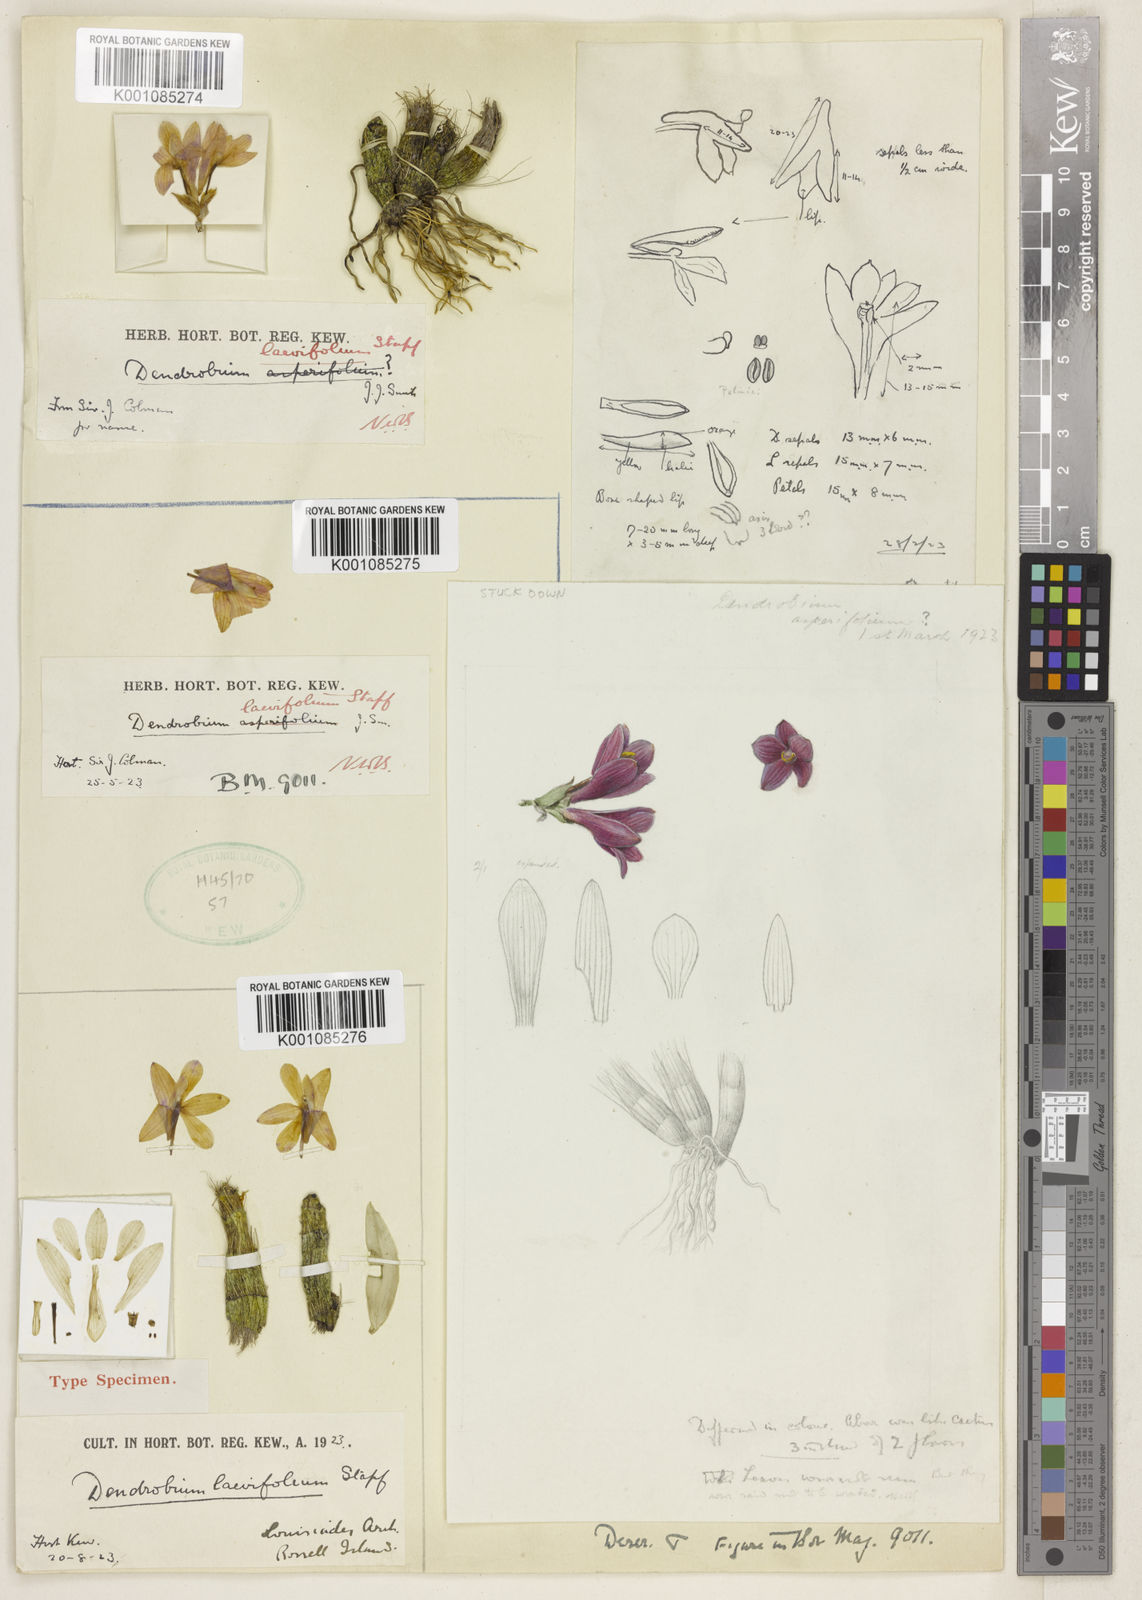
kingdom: Plantae
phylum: Tracheophyta
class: Liliopsida
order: Asparagales
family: Orchidaceae
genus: Dendrobium
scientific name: Dendrobium laevifolium
